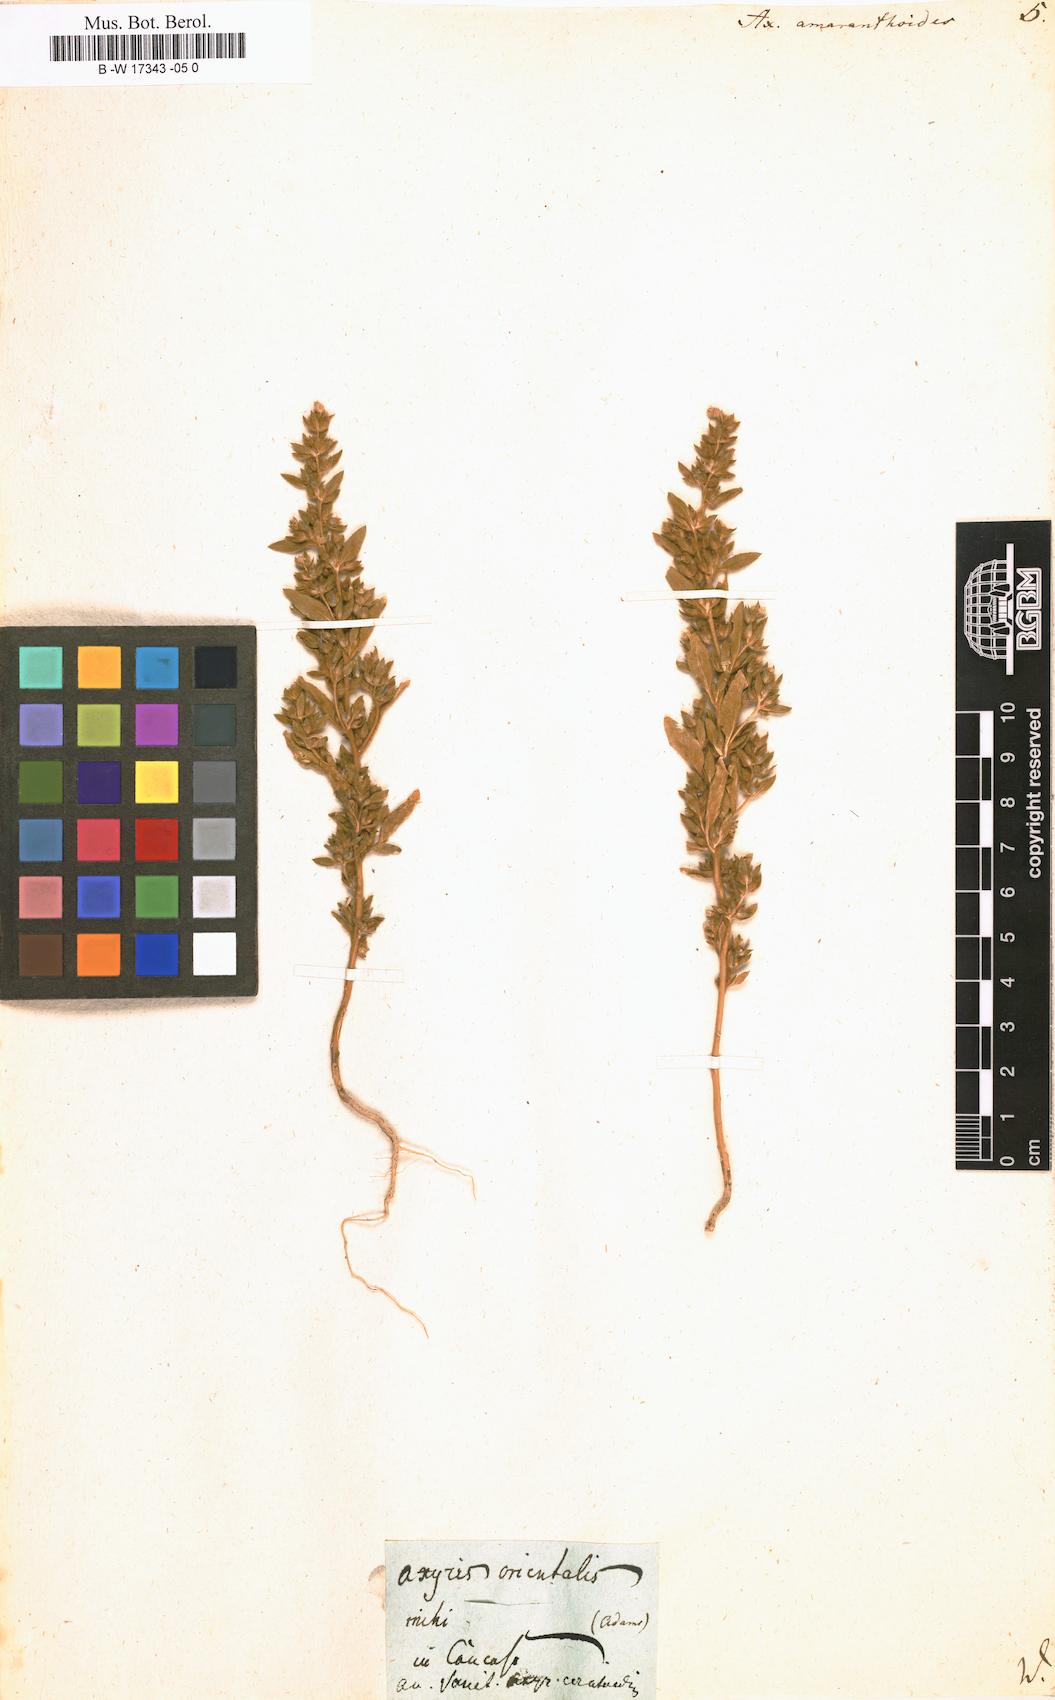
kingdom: Plantae
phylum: Tracheophyta
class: Magnoliopsida
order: Caryophyllales
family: Amaranthaceae
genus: Axyris
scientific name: Axyris amaranthoides
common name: Russian pigweed
